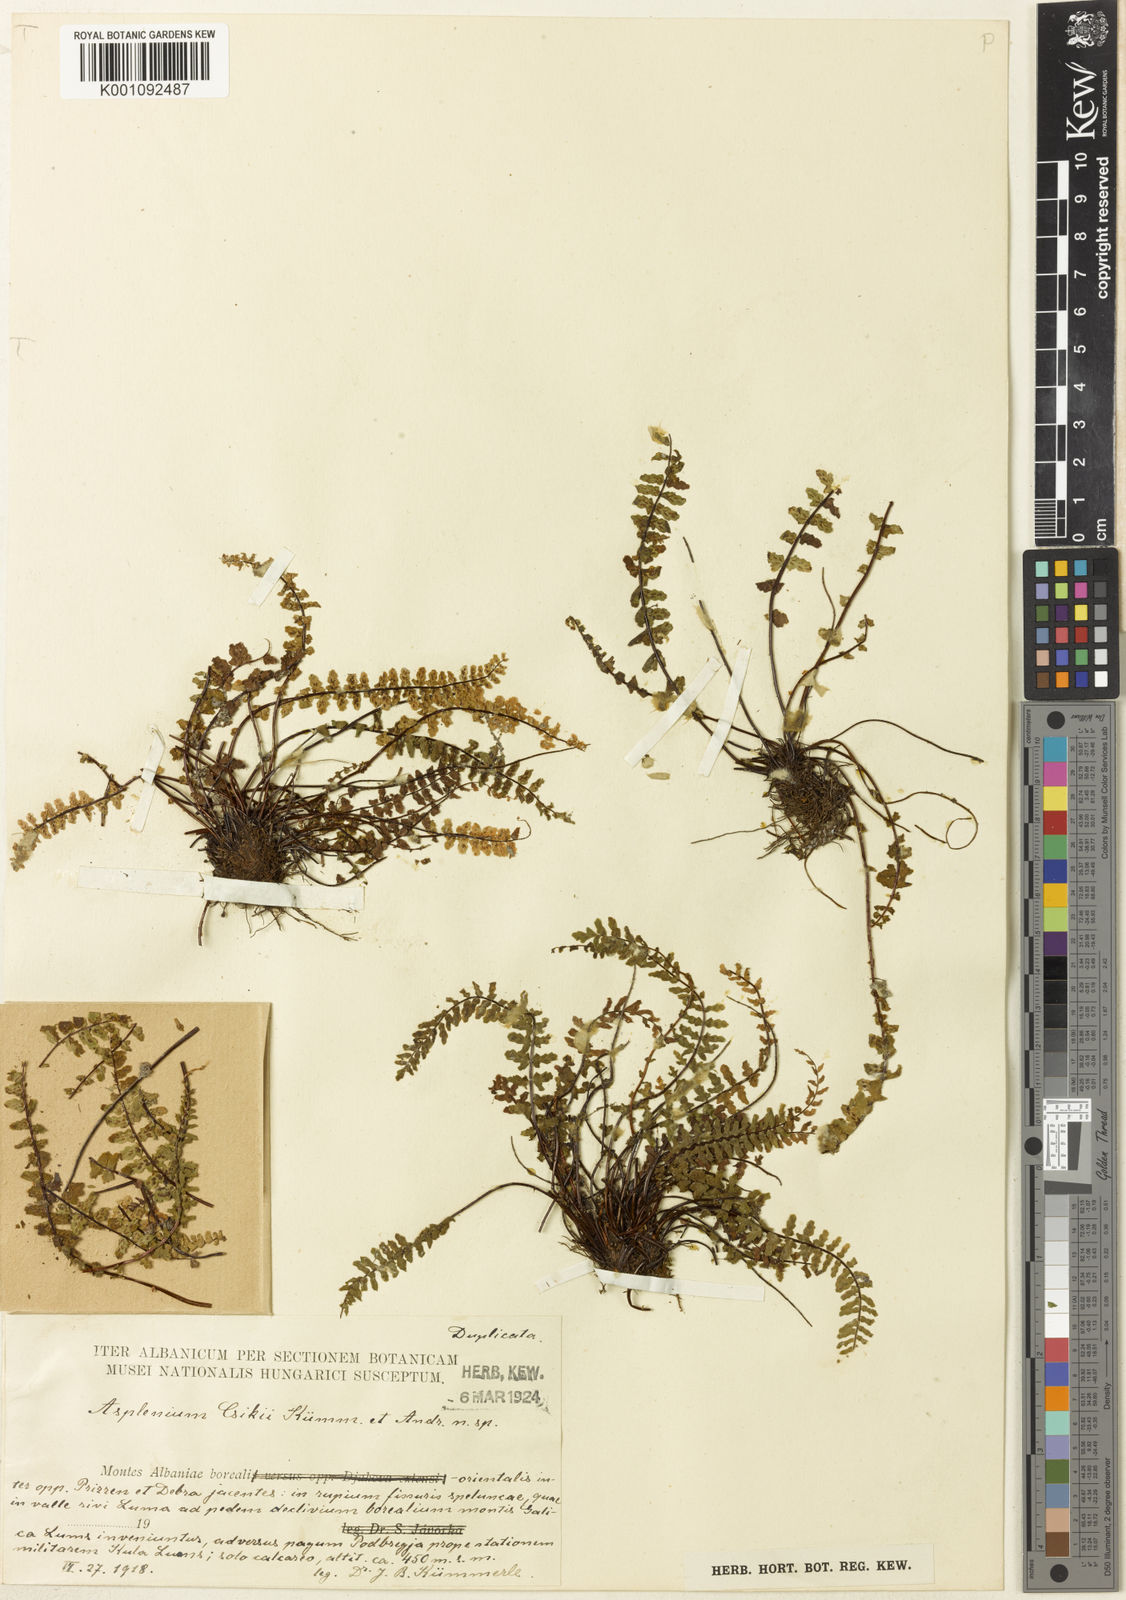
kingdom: Plantae
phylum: Tracheophyta
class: Polypodiopsida
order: Polypodiales
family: Aspleniaceae
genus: Asplenium
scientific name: Asplenium
